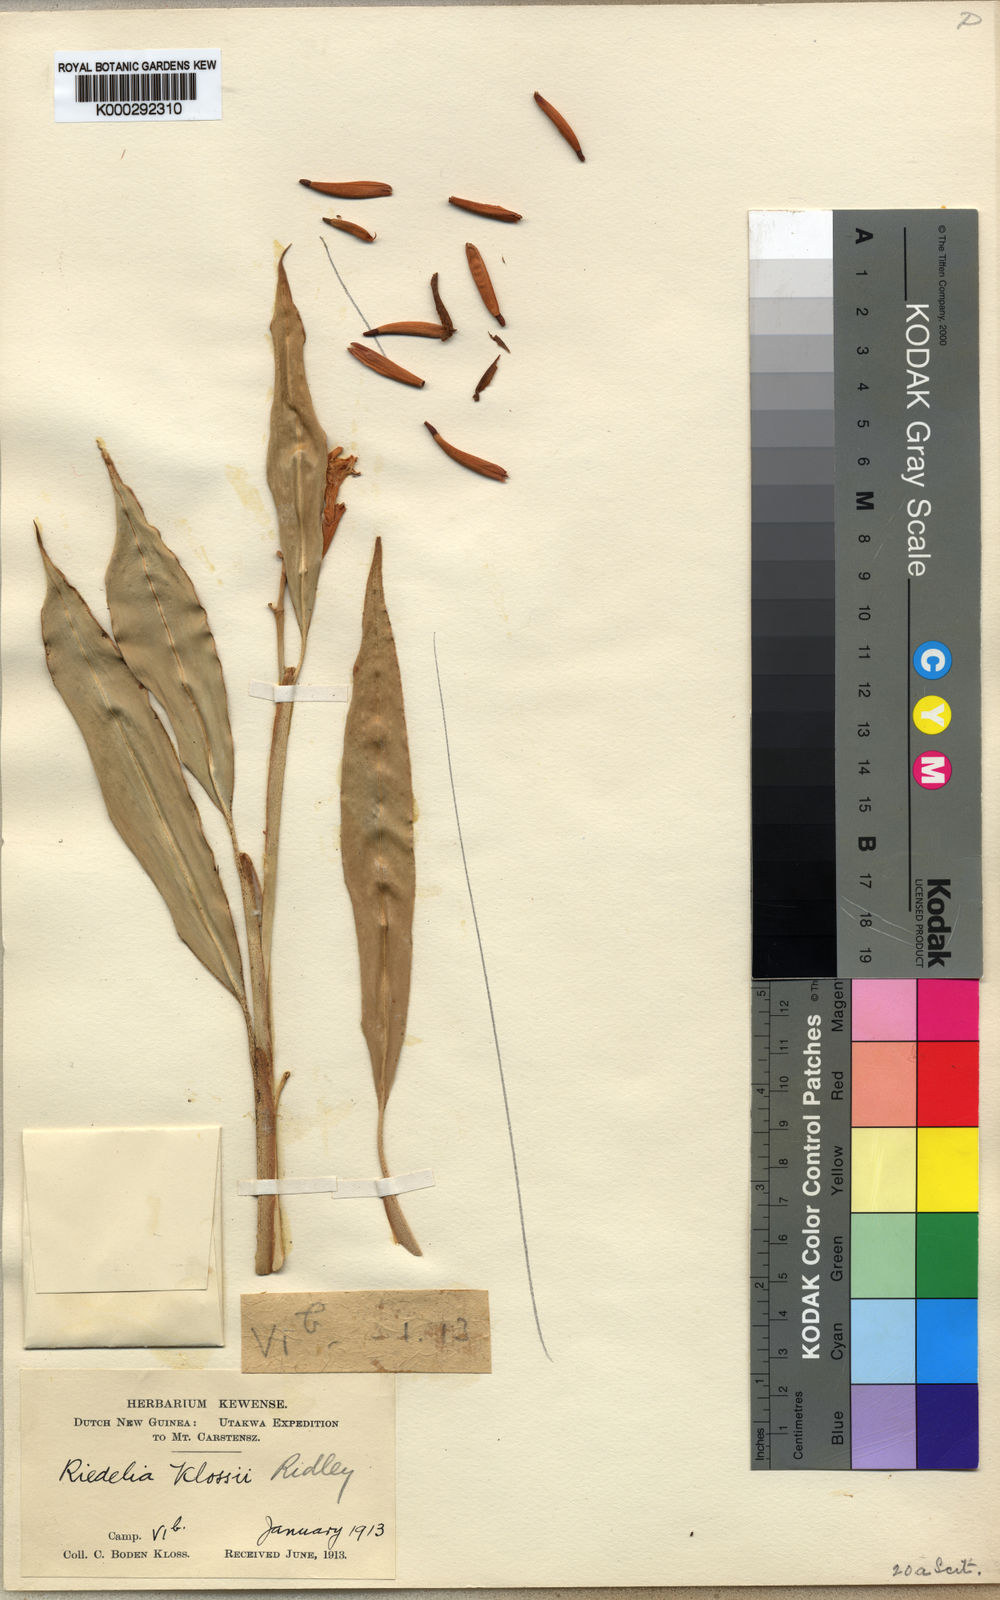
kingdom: Plantae
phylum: Tracheophyta
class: Liliopsida
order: Zingiberales
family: Zingiberaceae
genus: Riedelia
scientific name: Riedelia klossii
